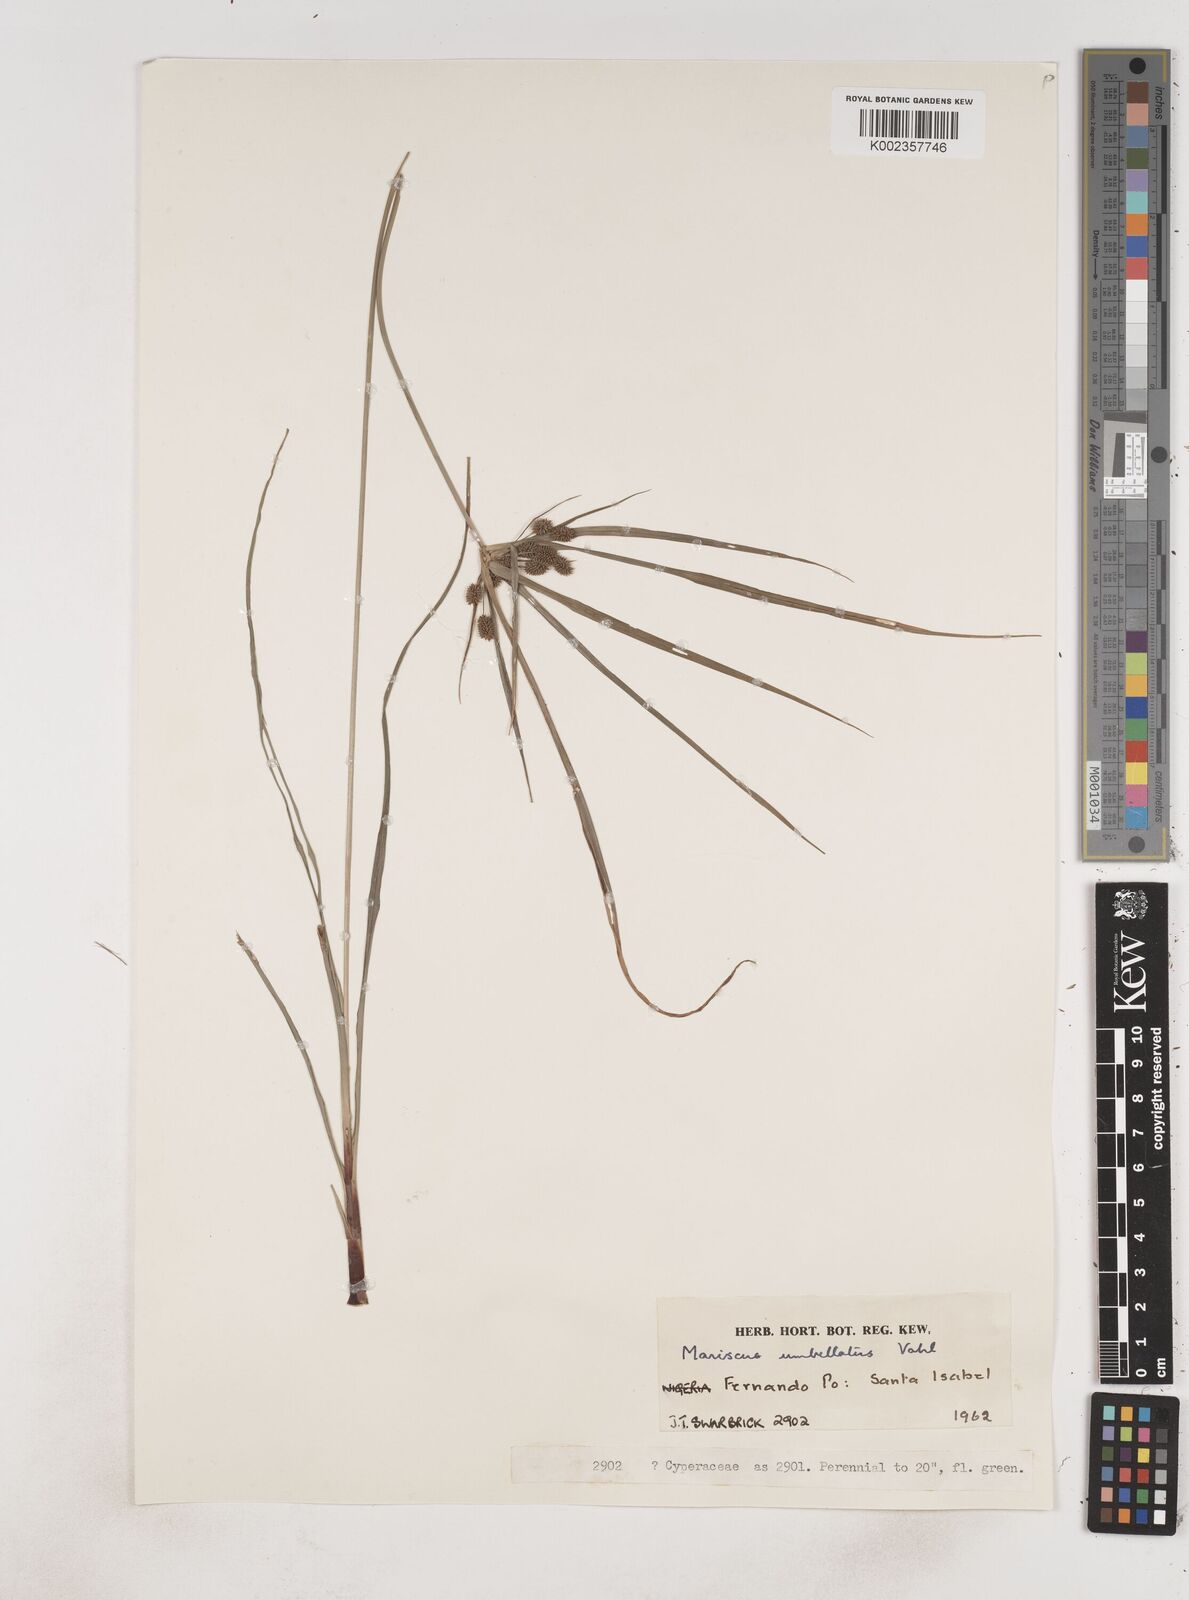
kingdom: Plantae
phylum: Tracheophyta
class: Liliopsida
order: Poales
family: Cyperaceae
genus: Cyperus
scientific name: Cyperus sublimis
